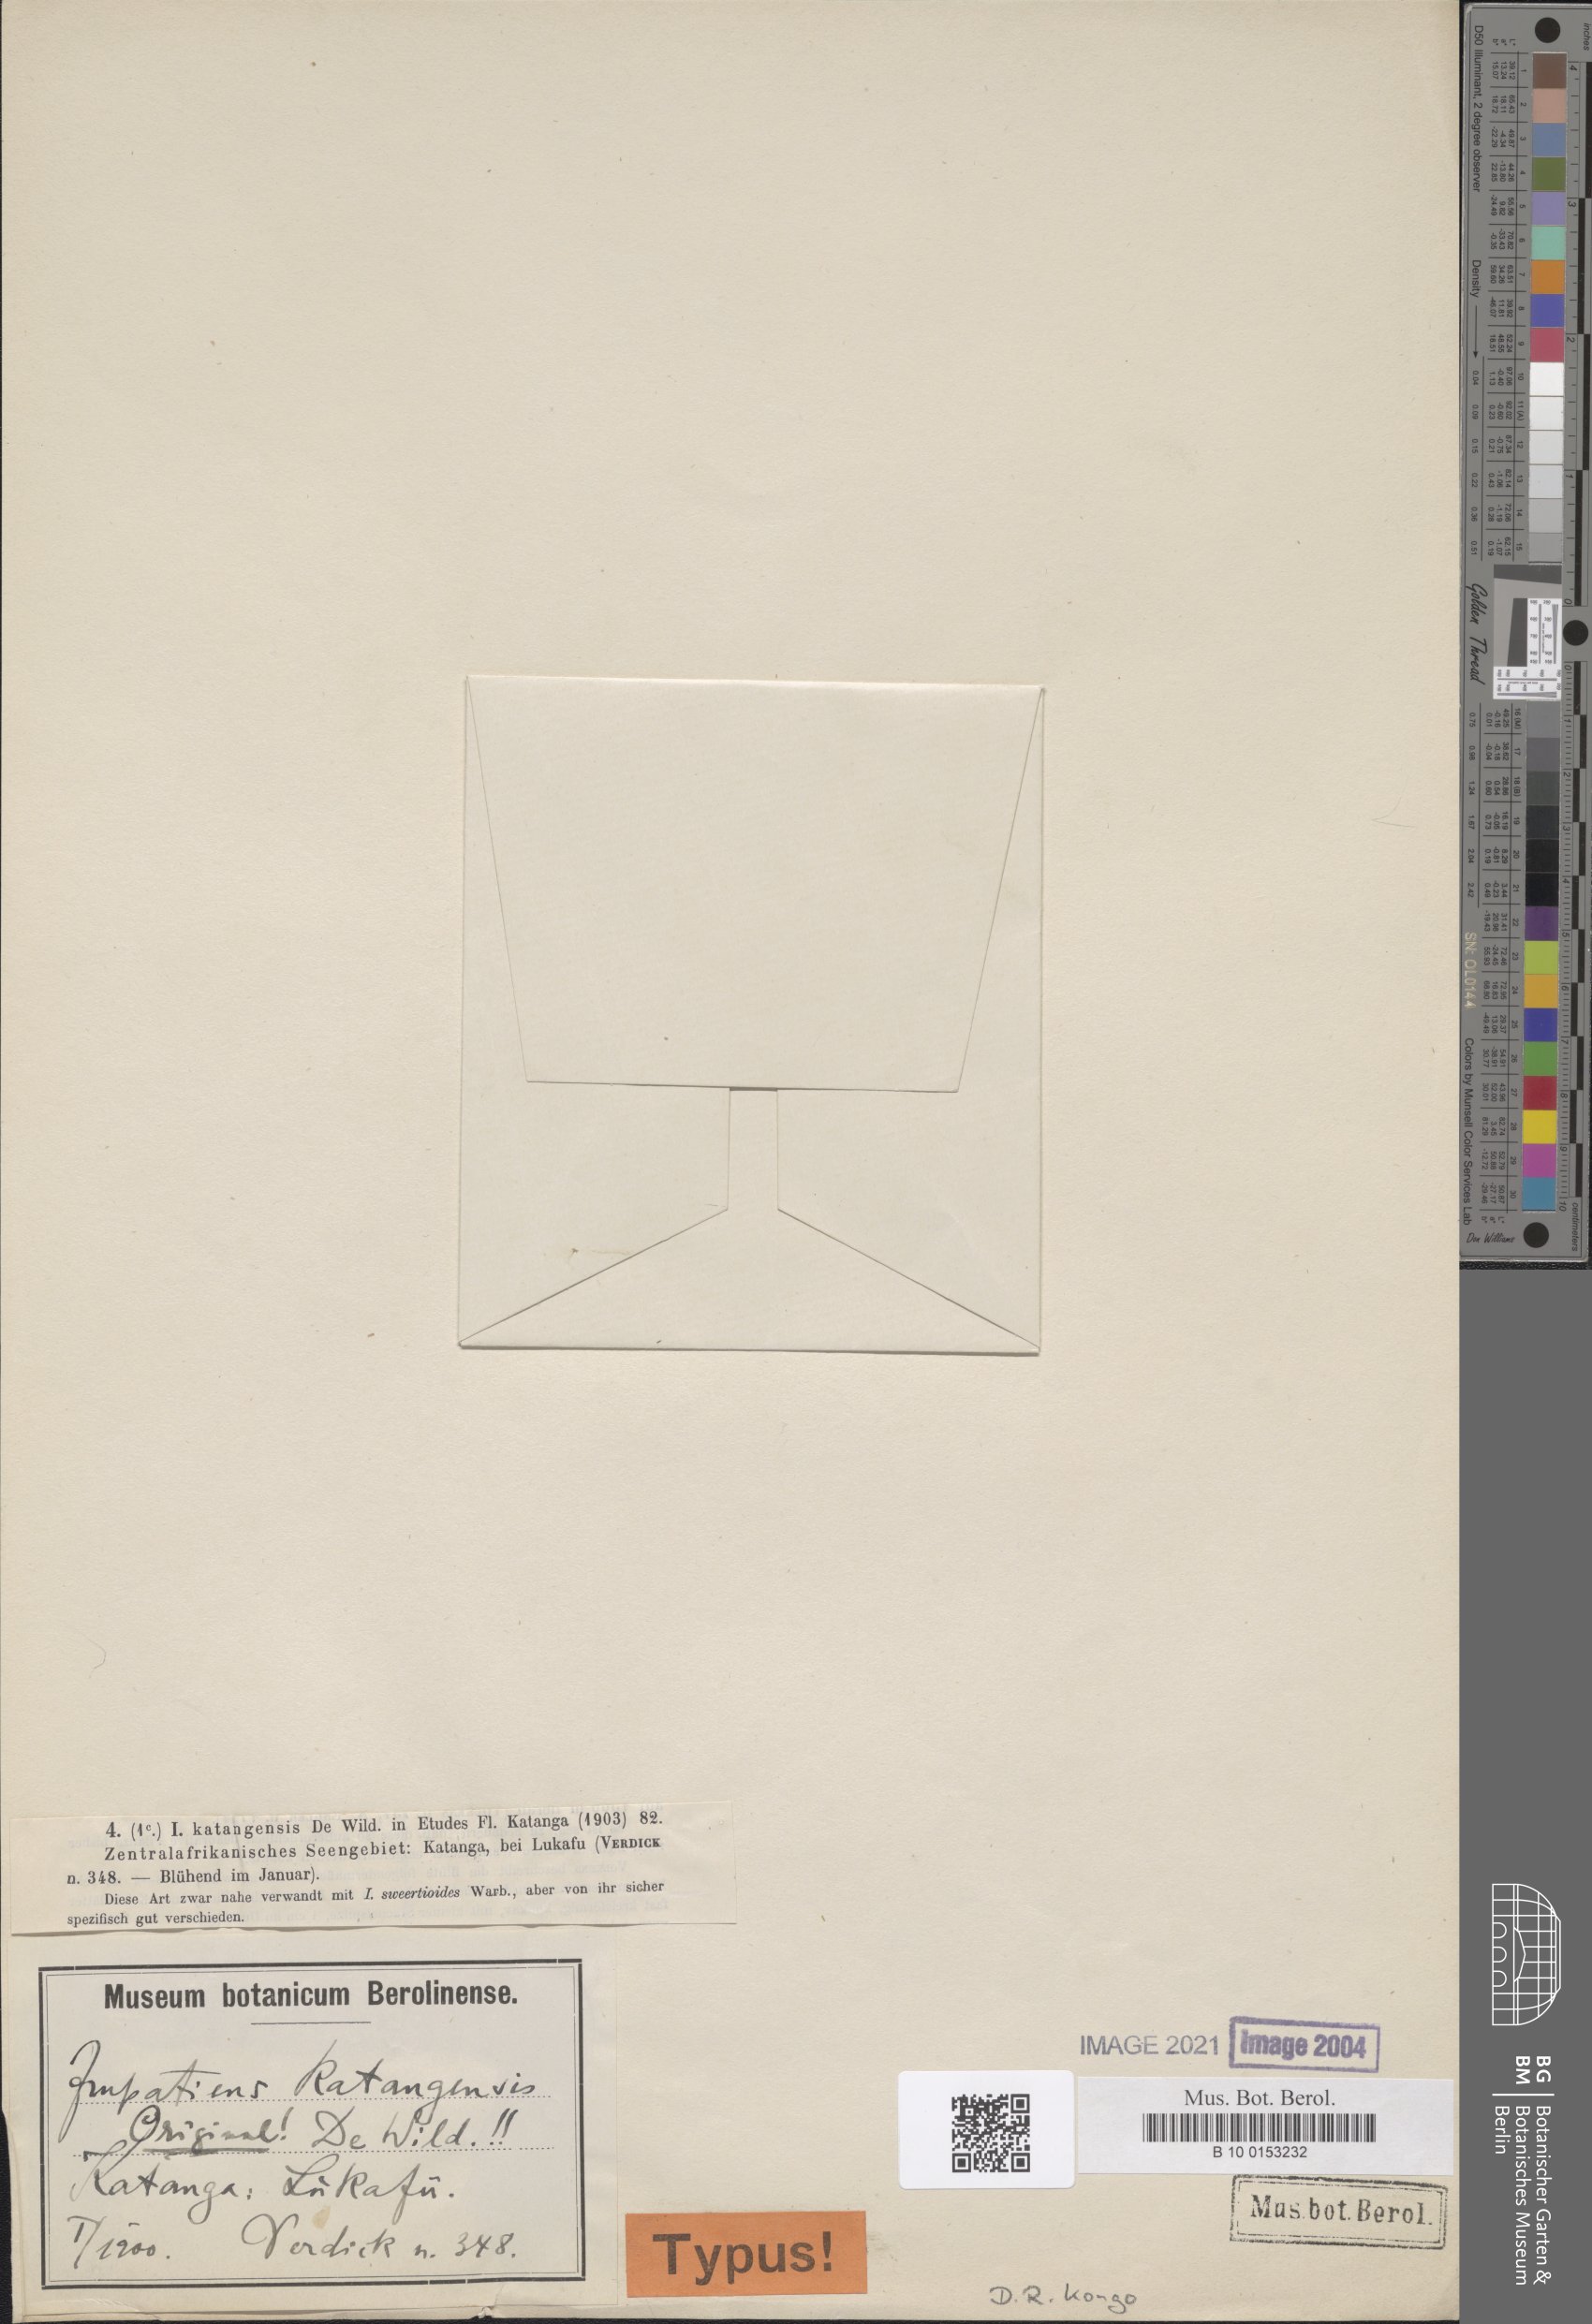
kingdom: Plantae
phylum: Tracheophyta
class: Magnoliopsida
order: Ericales
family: Balsaminaceae
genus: Impatiens
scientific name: Impatiens assurgens
